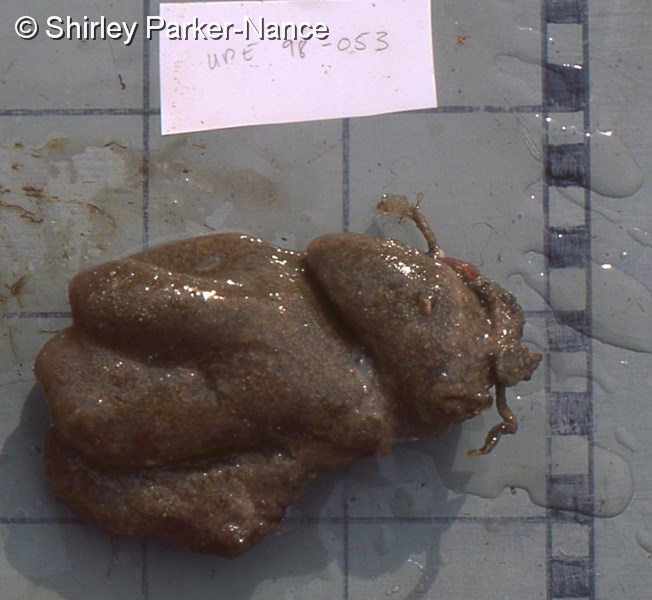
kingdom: Animalia
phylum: Chordata
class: Ascidiacea
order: Aplousobranchia
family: Polyclinidae
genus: Synoicum
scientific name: Synoicum
